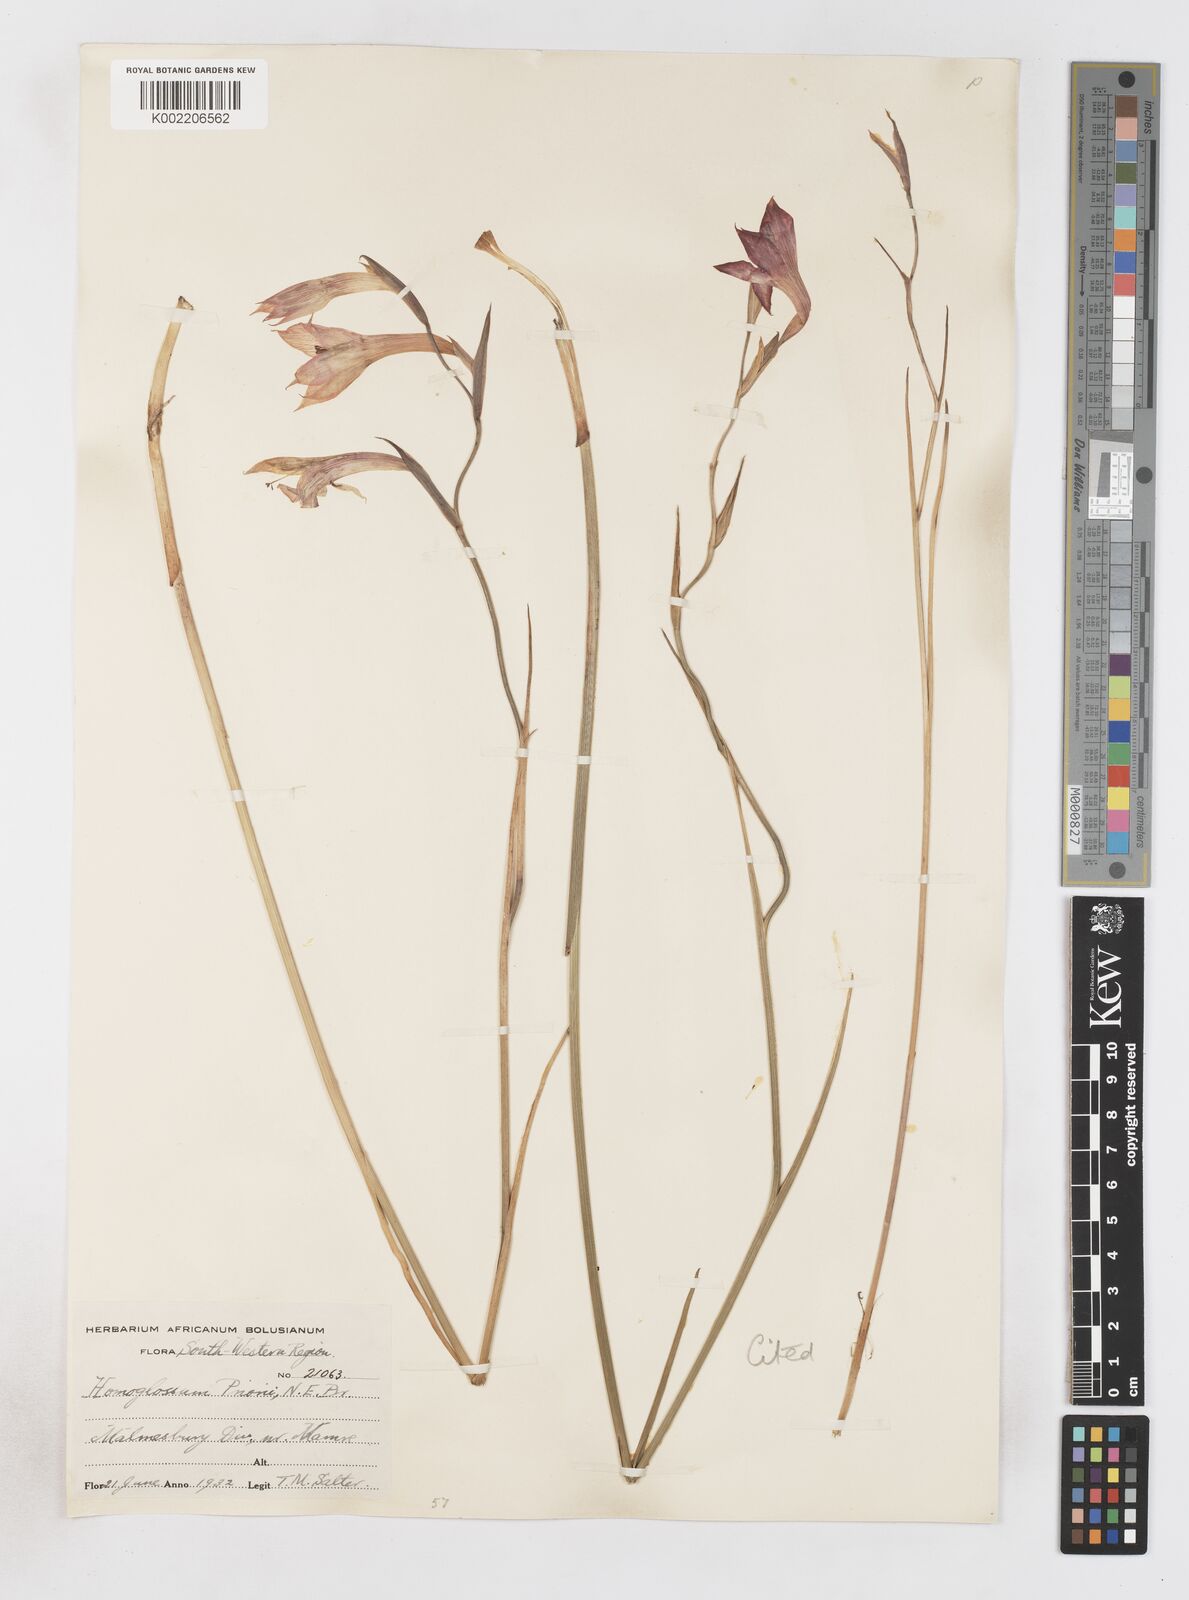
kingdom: Plantae
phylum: Tracheophyta
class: Liliopsida
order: Asparagales
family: Iridaceae
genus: Gladiolus
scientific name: Gladiolus priorii
